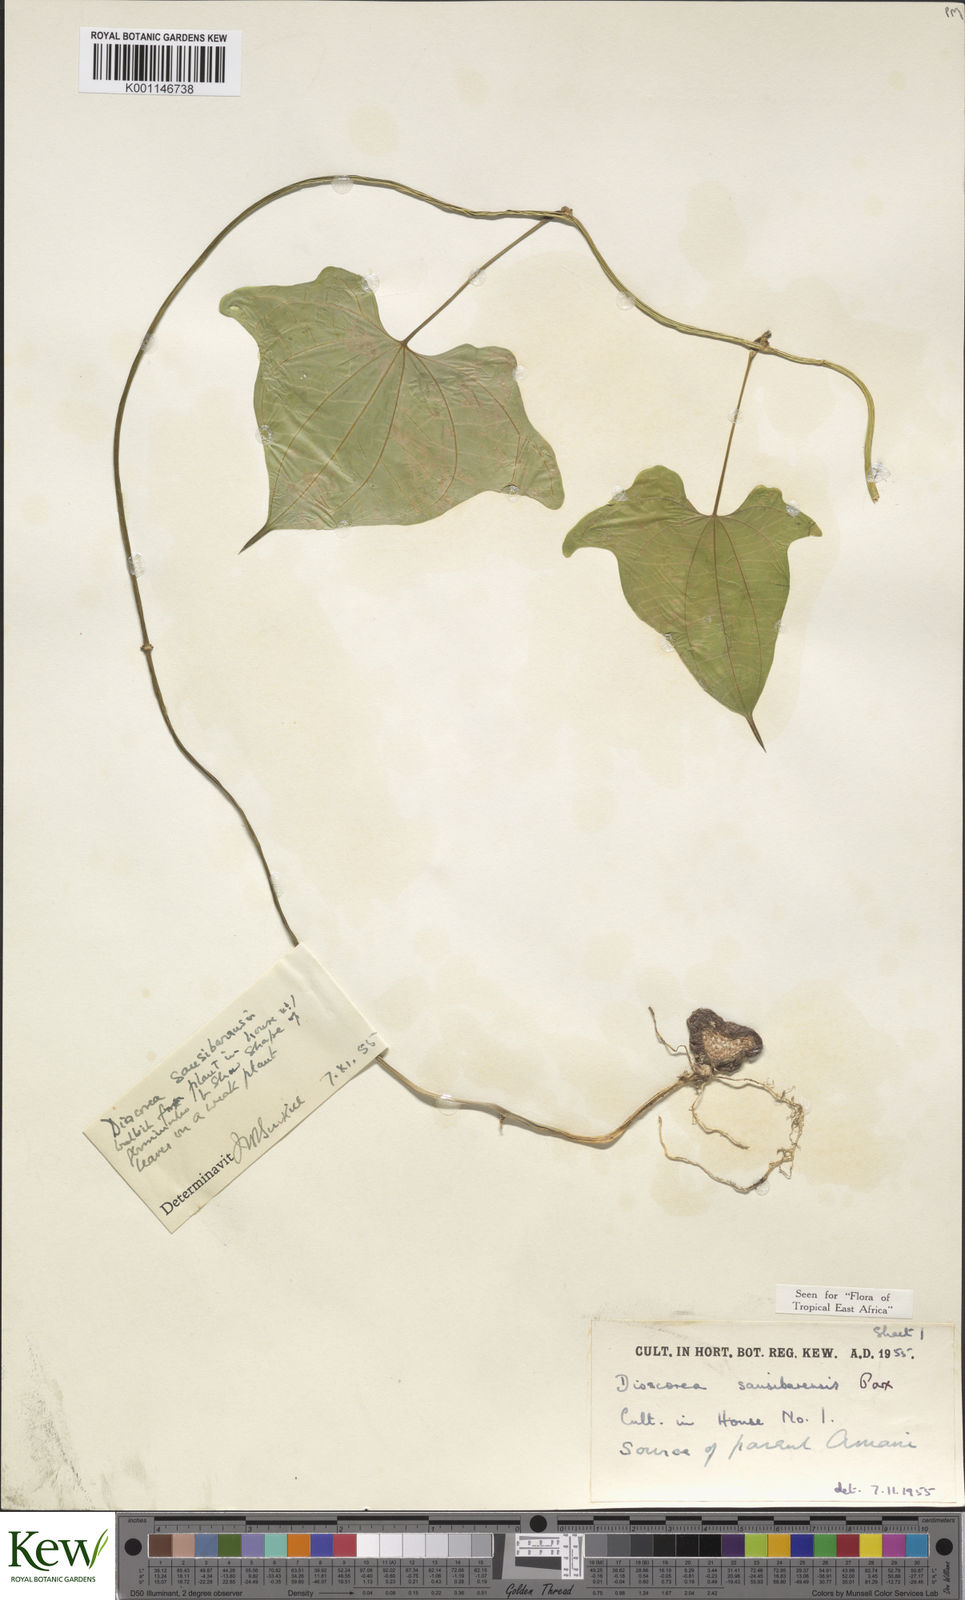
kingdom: Plantae
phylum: Tracheophyta
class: Liliopsida
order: Dioscoreales
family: Dioscoreaceae
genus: Dioscorea
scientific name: Dioscorea sansibarensis
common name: Zanzibar yam
